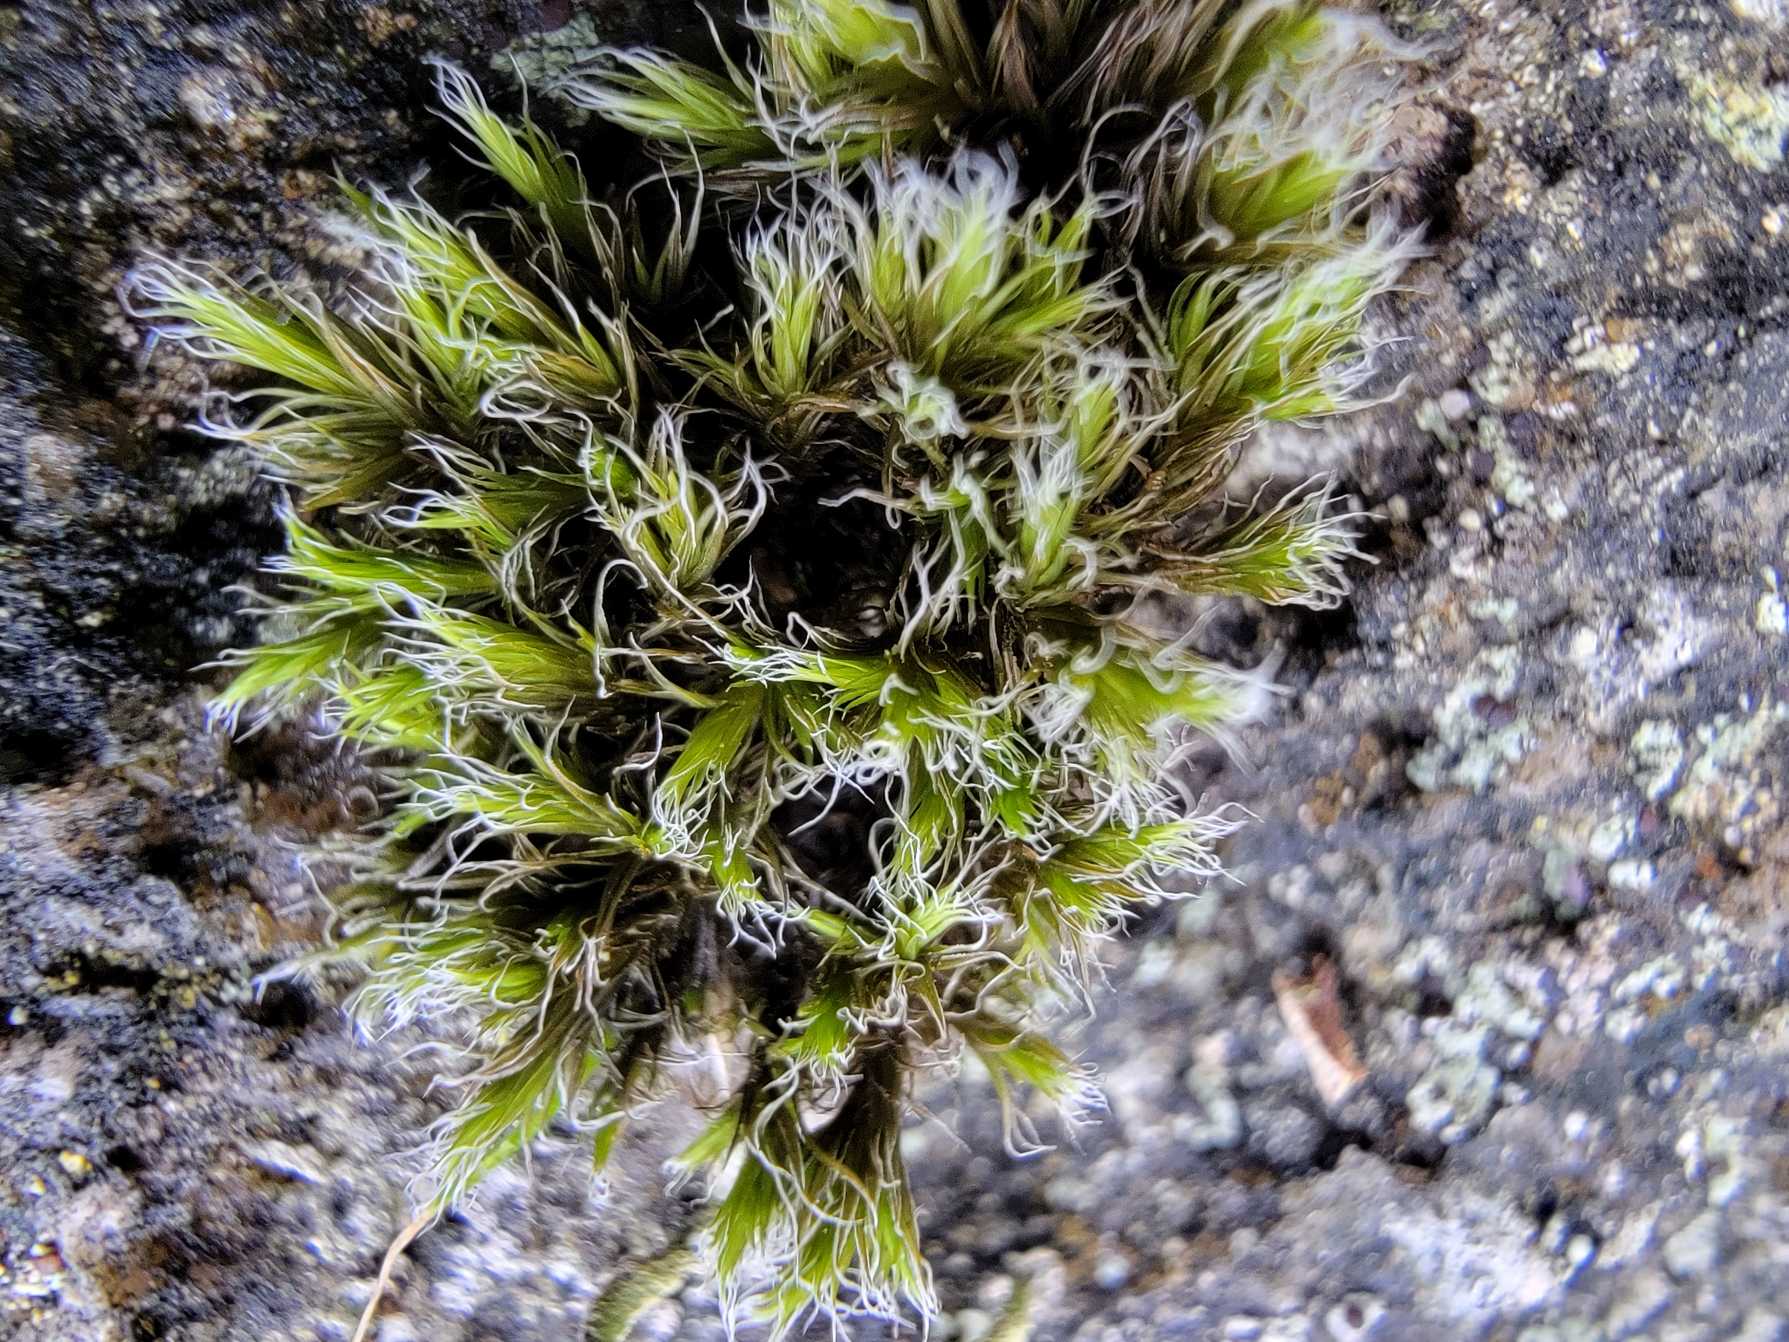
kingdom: Plantae
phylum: Bryophyta
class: Bryopsida
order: Grimmiales
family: Grimmiaceae
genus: Racomitrium
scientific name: Racomitrium lanuginosum
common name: Stor børstemos
